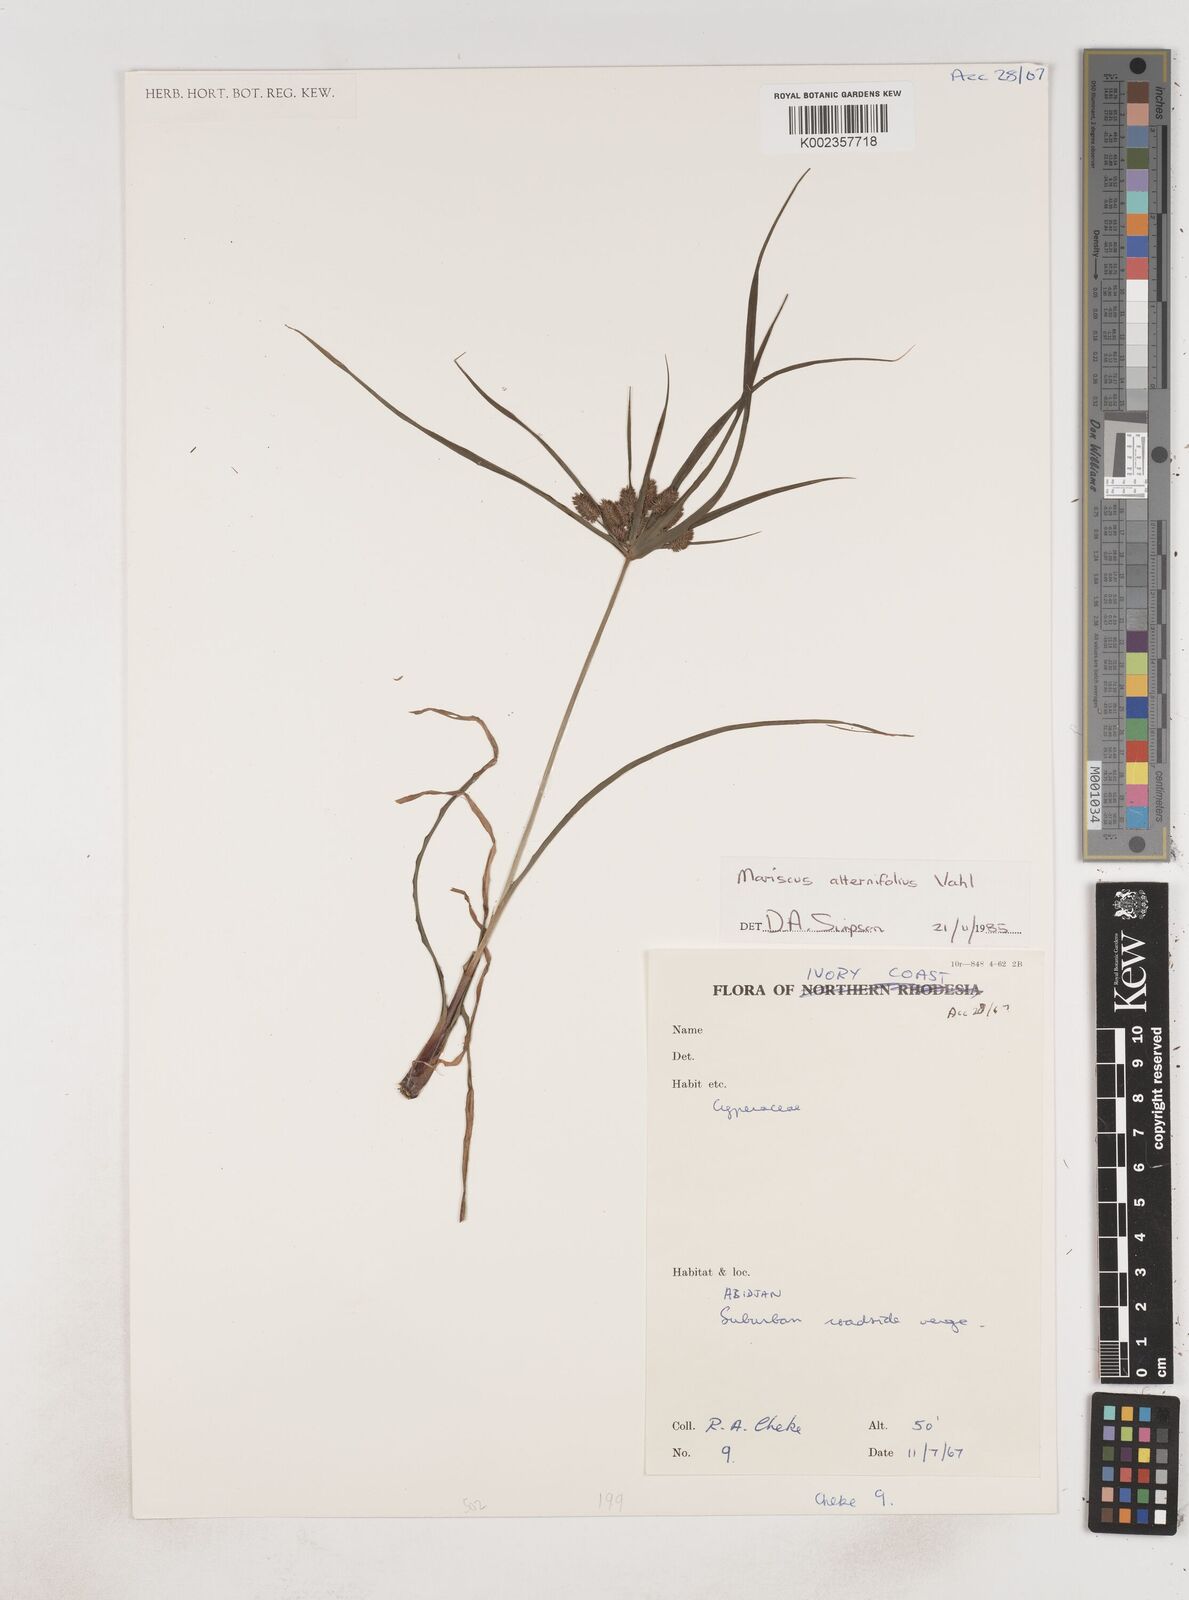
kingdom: Plantae
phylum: Tracheophyta
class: Liliopsida
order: Poales
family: Cyperaceae
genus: Cyperus
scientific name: Cyperus sublimis
